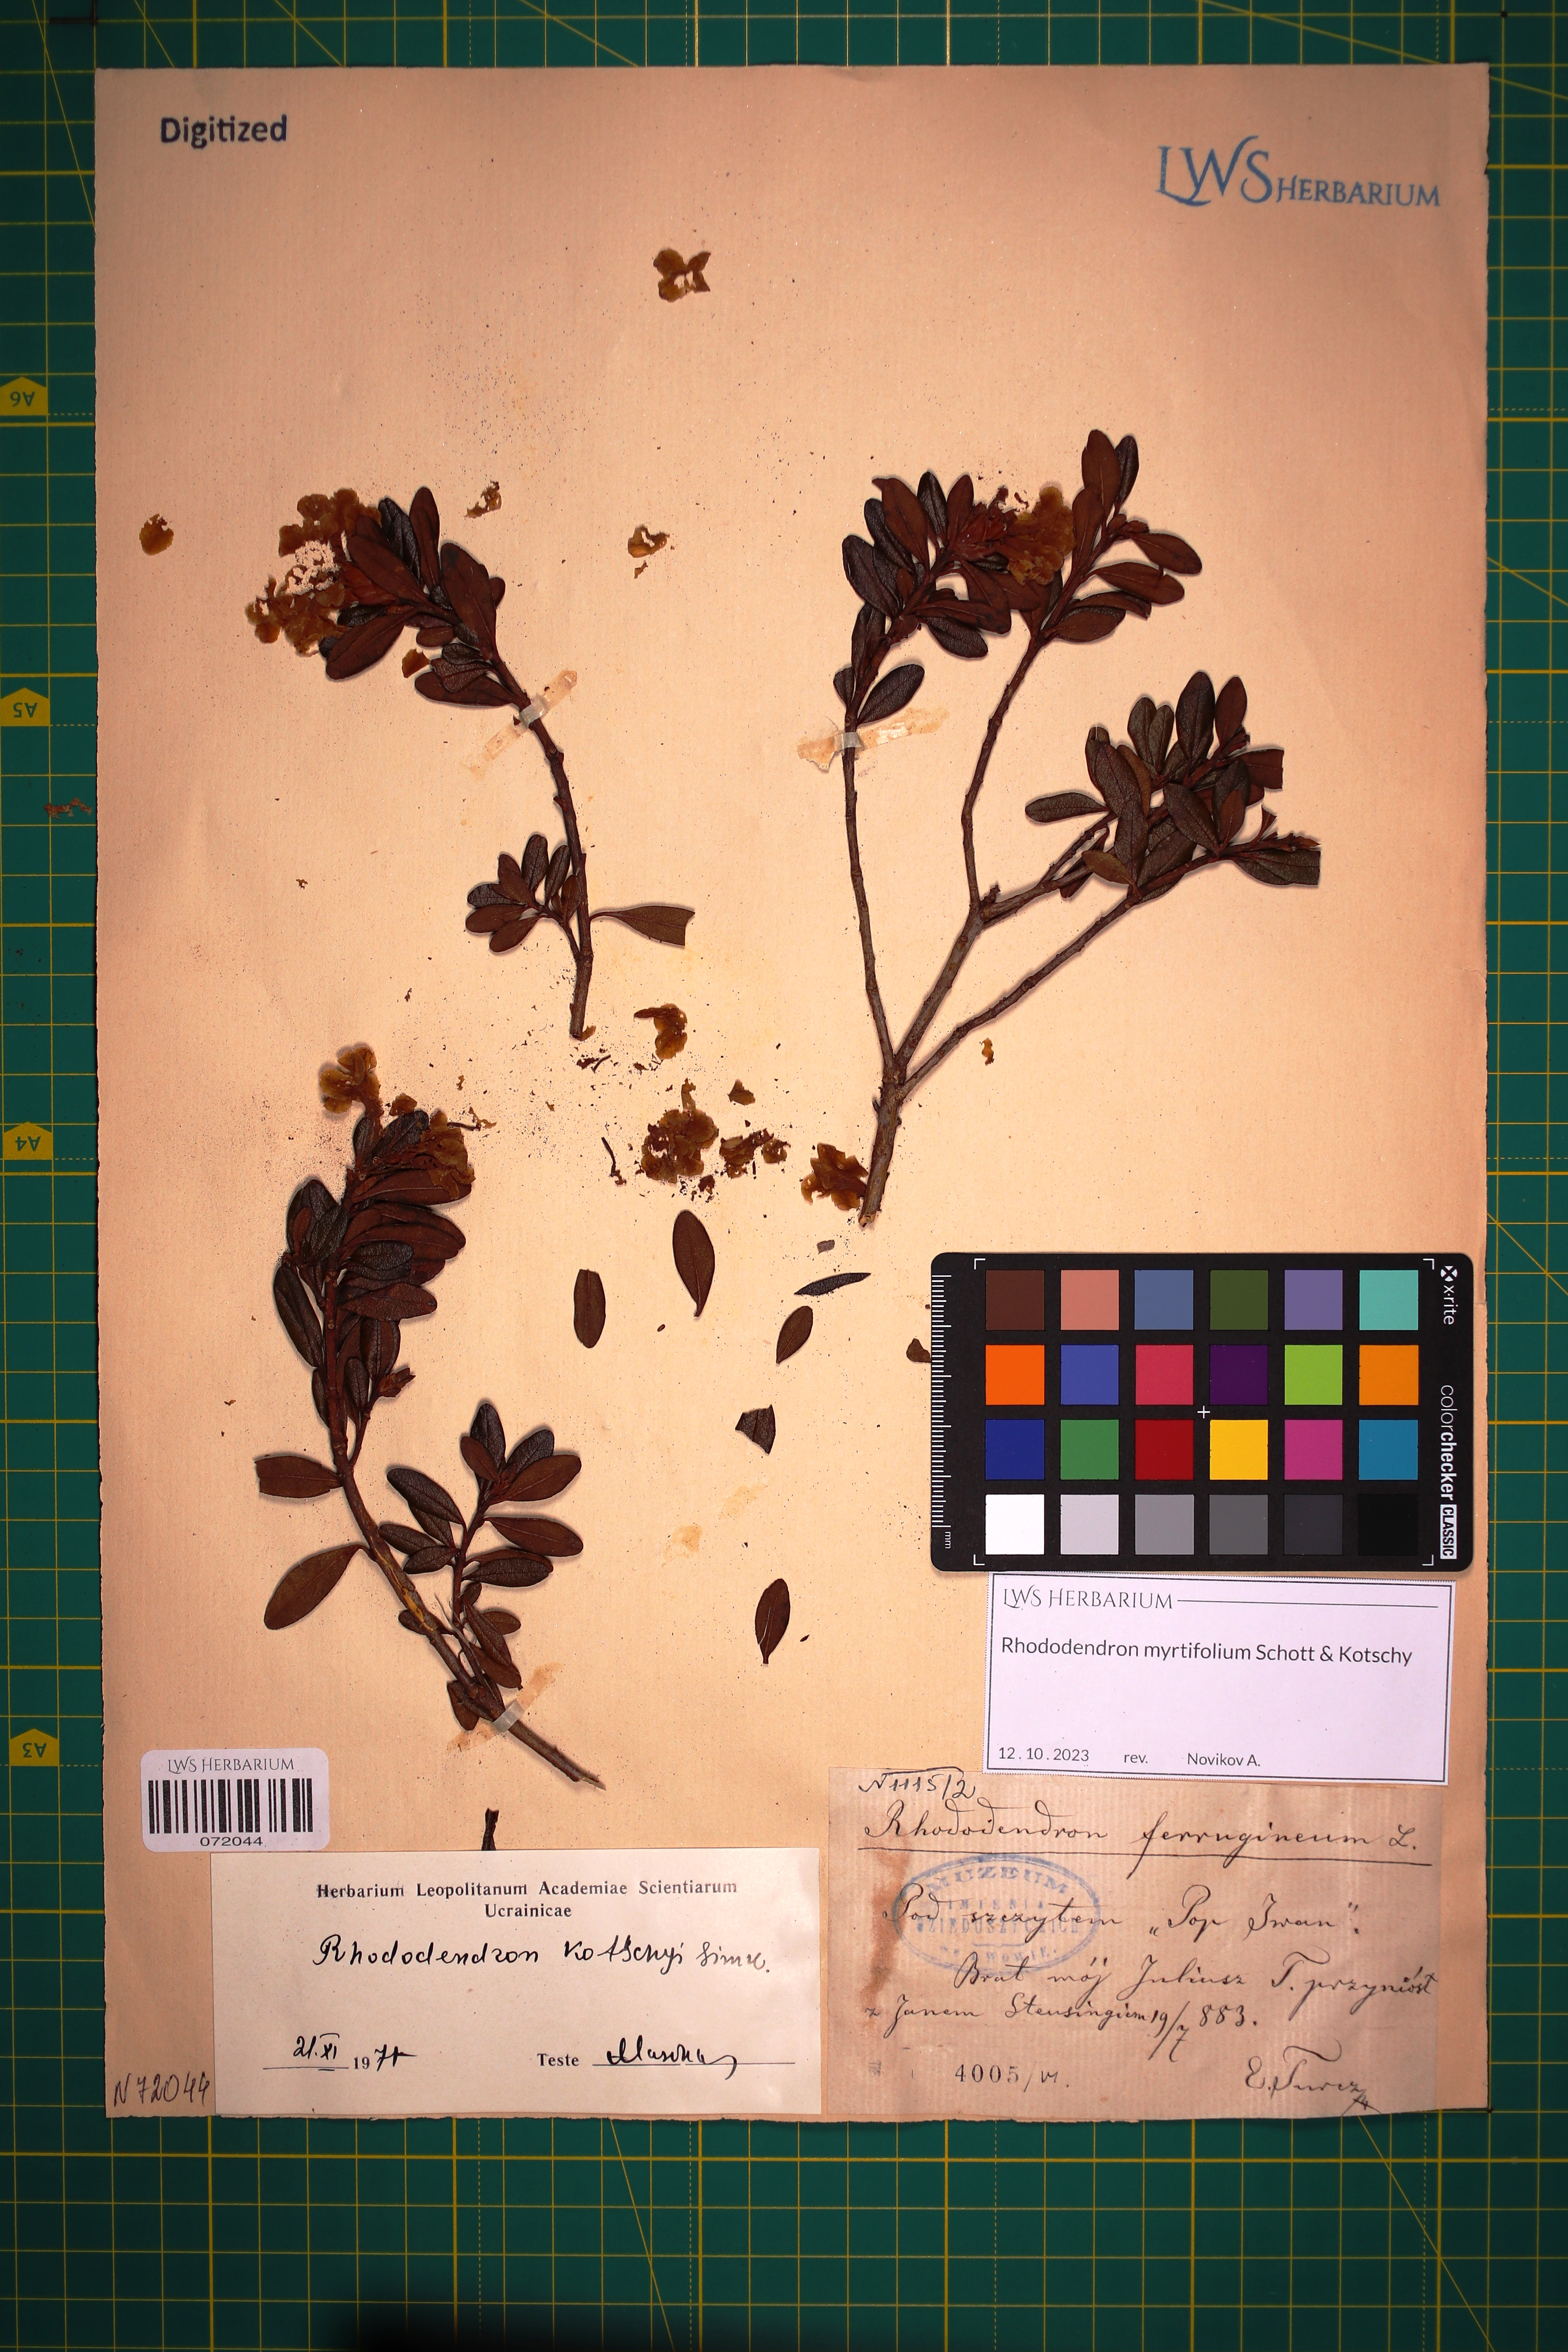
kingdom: Plantae
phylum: Tracheophyta
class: Magnoliopsida
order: Ericales
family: Ericaceae
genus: Rhododendron
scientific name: Rhododendron kotschyi
